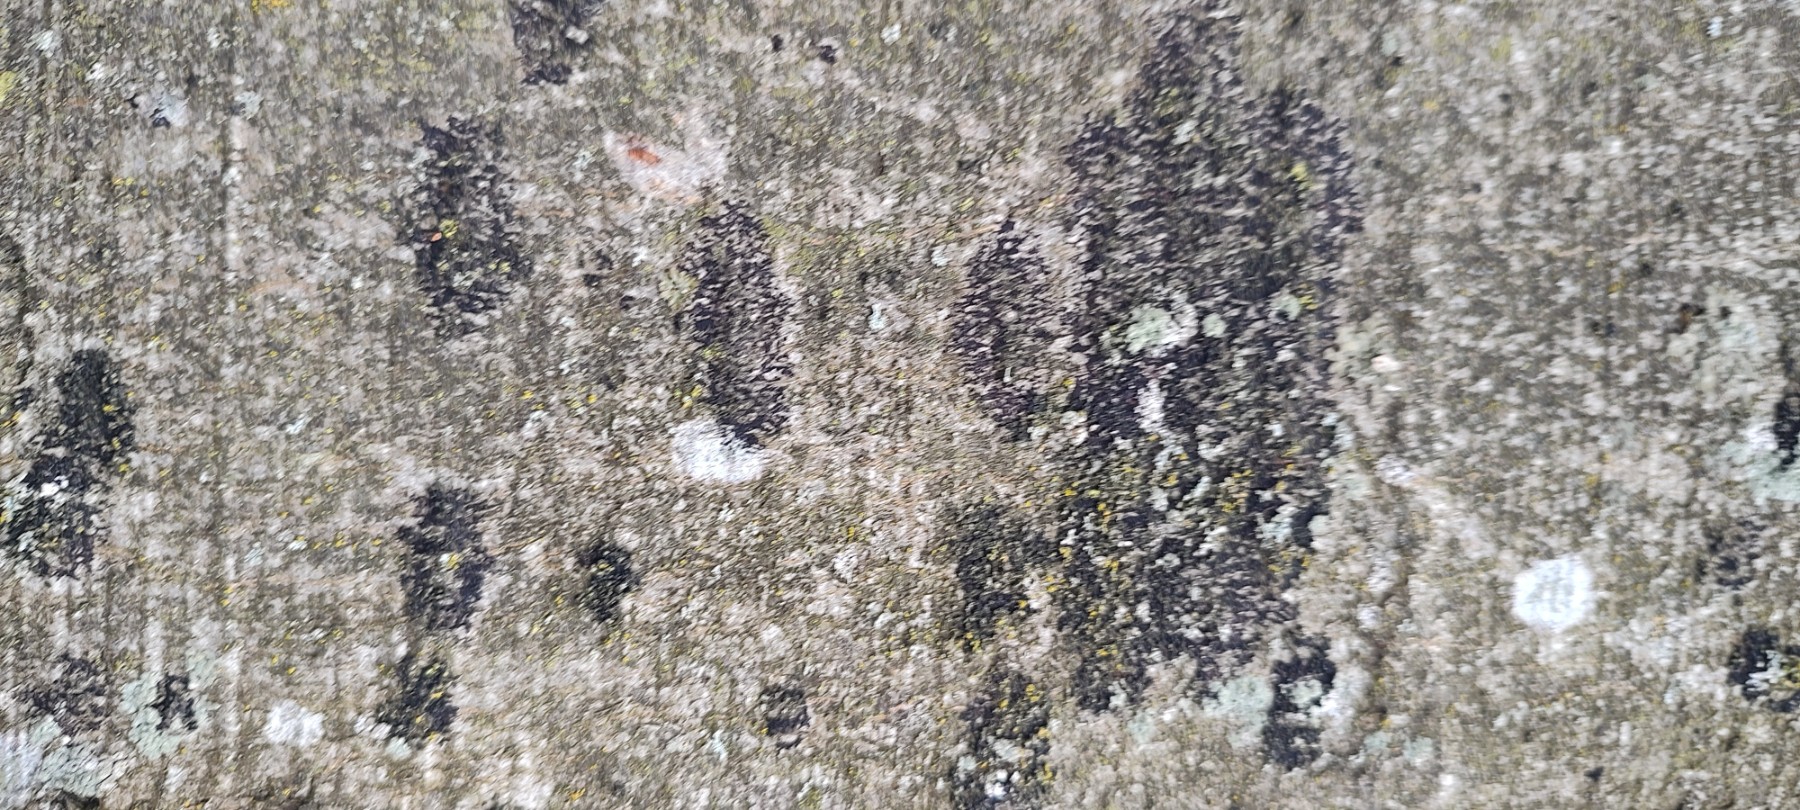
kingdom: Fungi
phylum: Ascomycota
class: Leotiomycetes
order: Rhytismatales
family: Ascodichaenaceae
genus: Ascodichaena
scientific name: Ascodichaena rugosa
